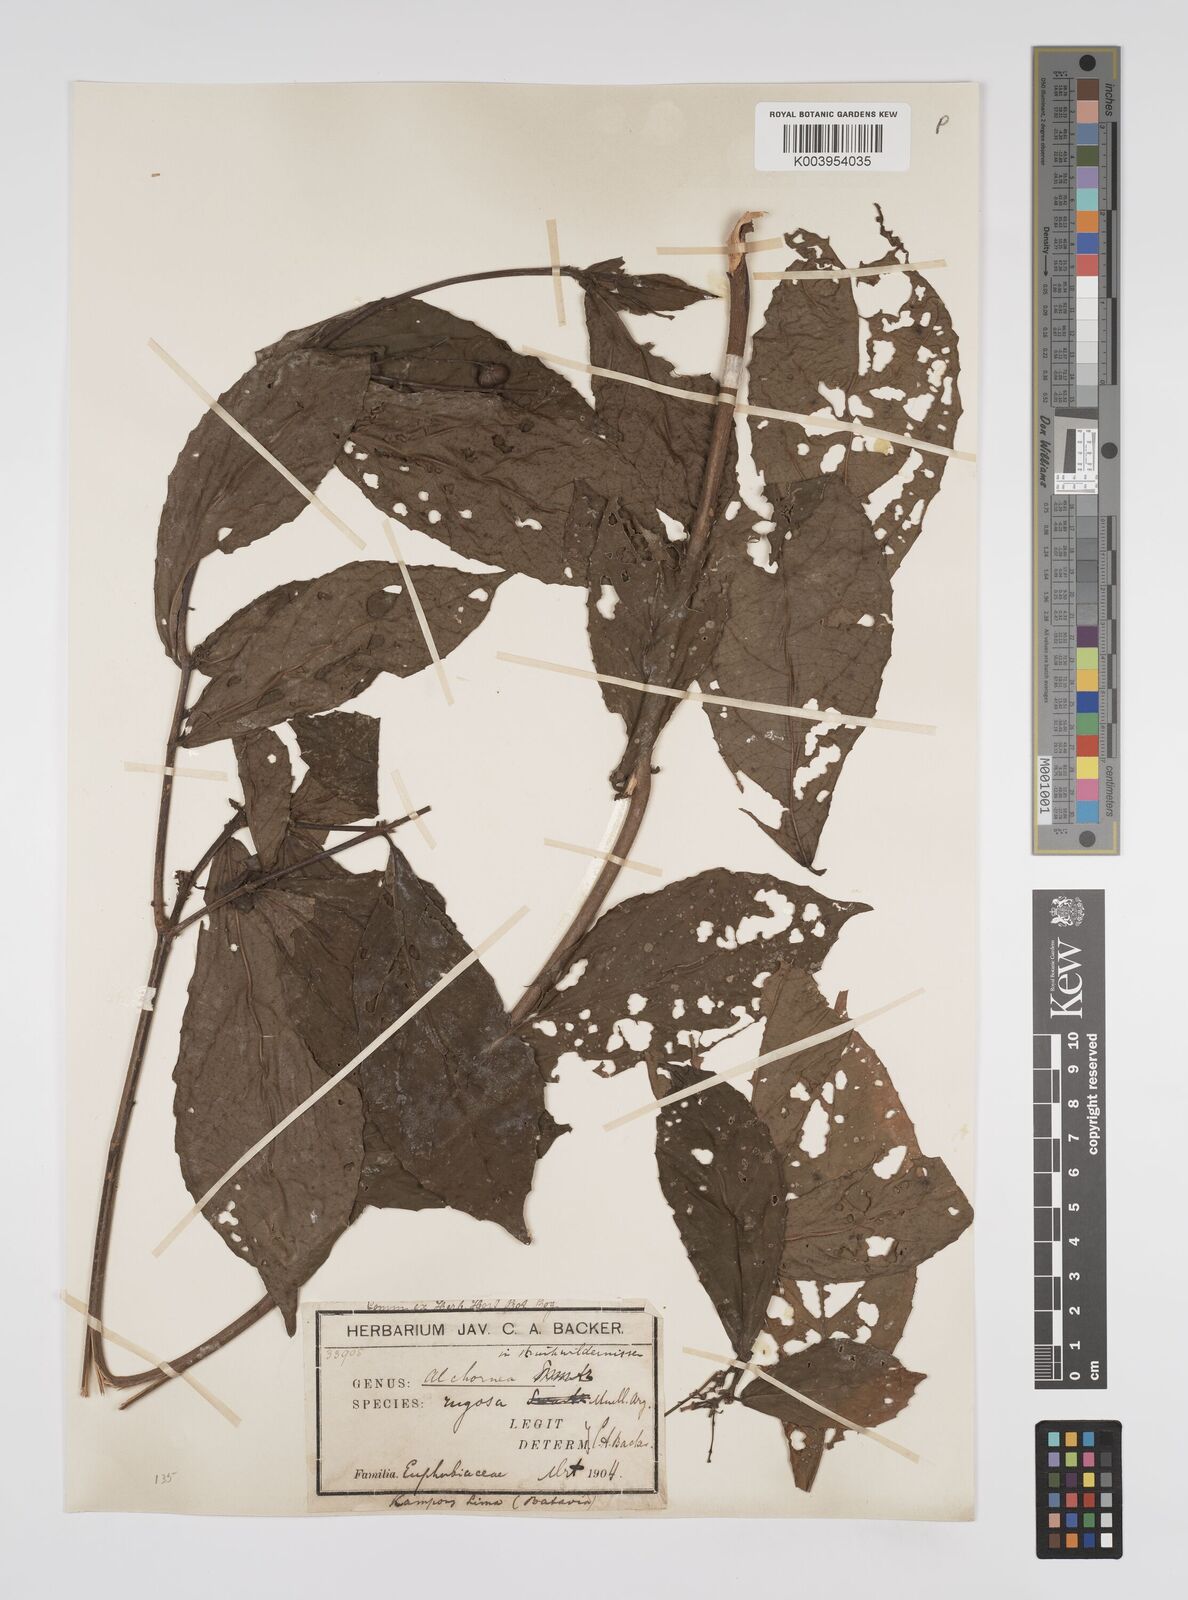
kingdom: Plantae
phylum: Tracheophyta
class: Magnoliopsida
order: Malpighiales
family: Euphorbiaceae
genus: Alchornea
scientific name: Alchornea rugosa
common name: Alchorntree
